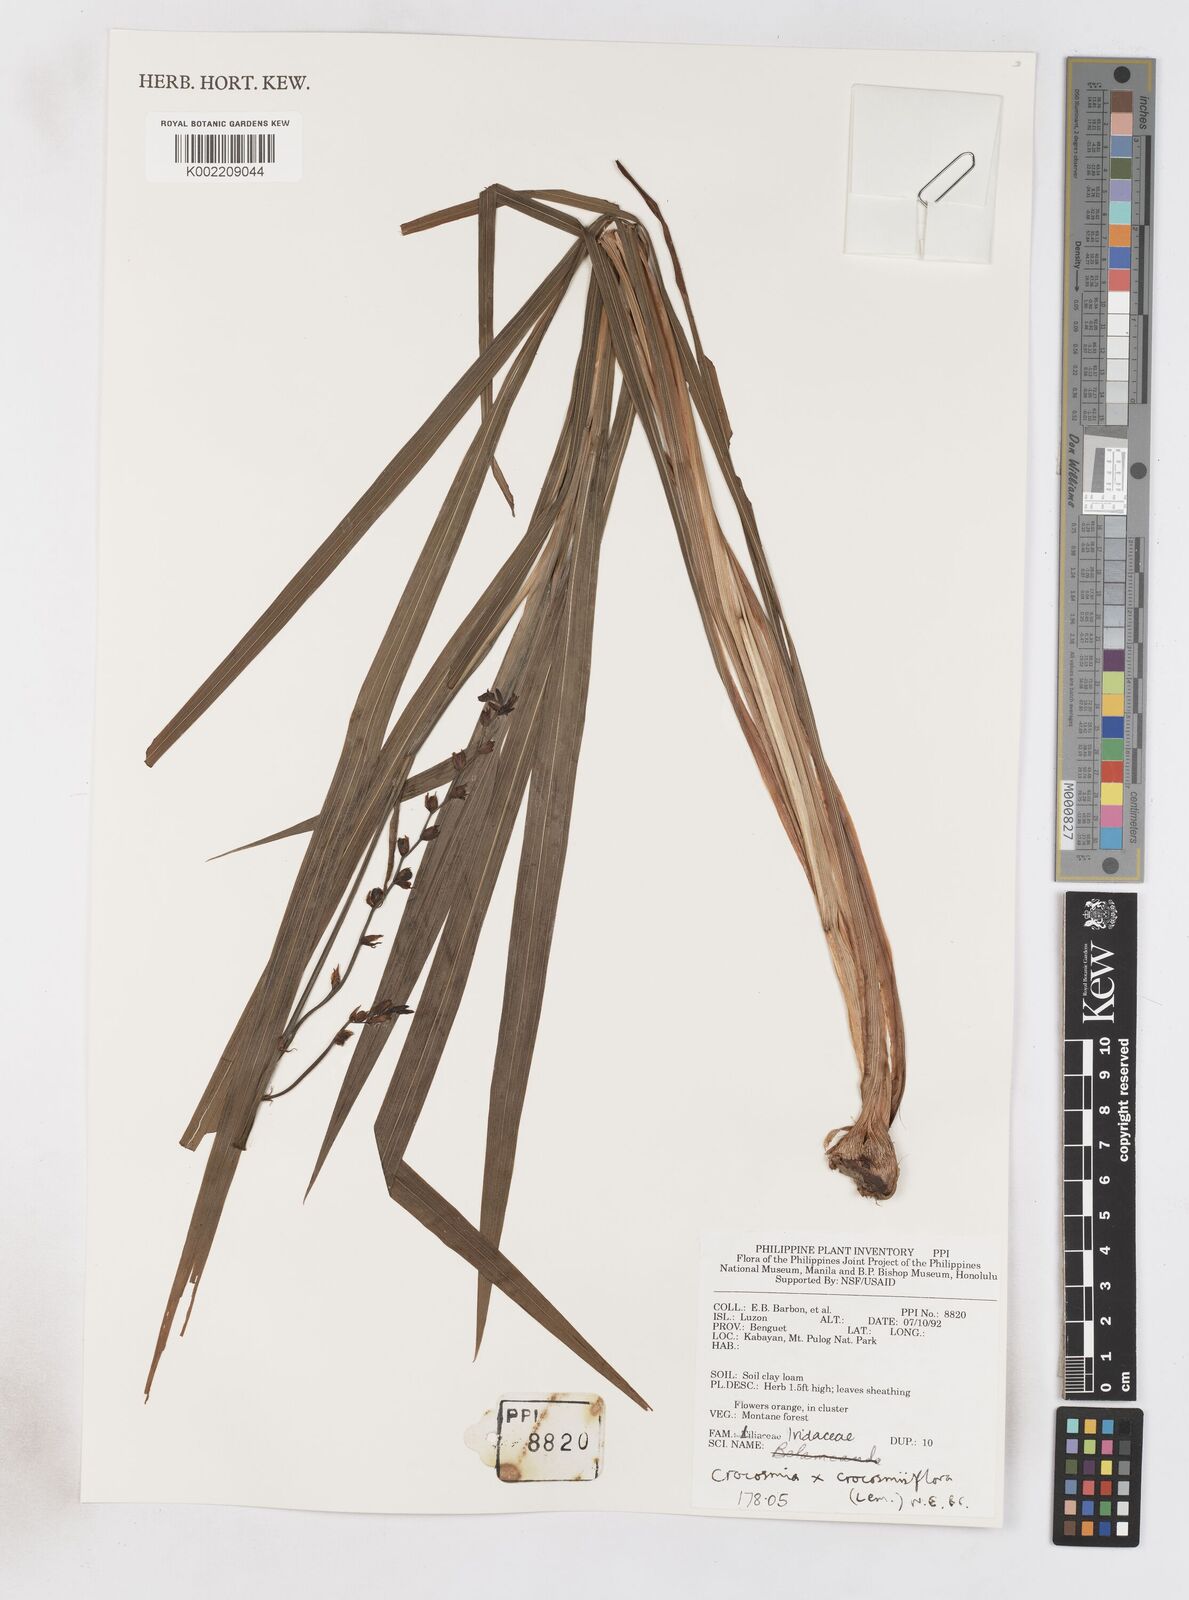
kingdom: Plantae
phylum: Tracheophyta
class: Liliopsida
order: Asparagales
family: Iridaceae
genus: Crocosmia
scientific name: Crocosmia crocosmiiflora
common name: Montbretia
